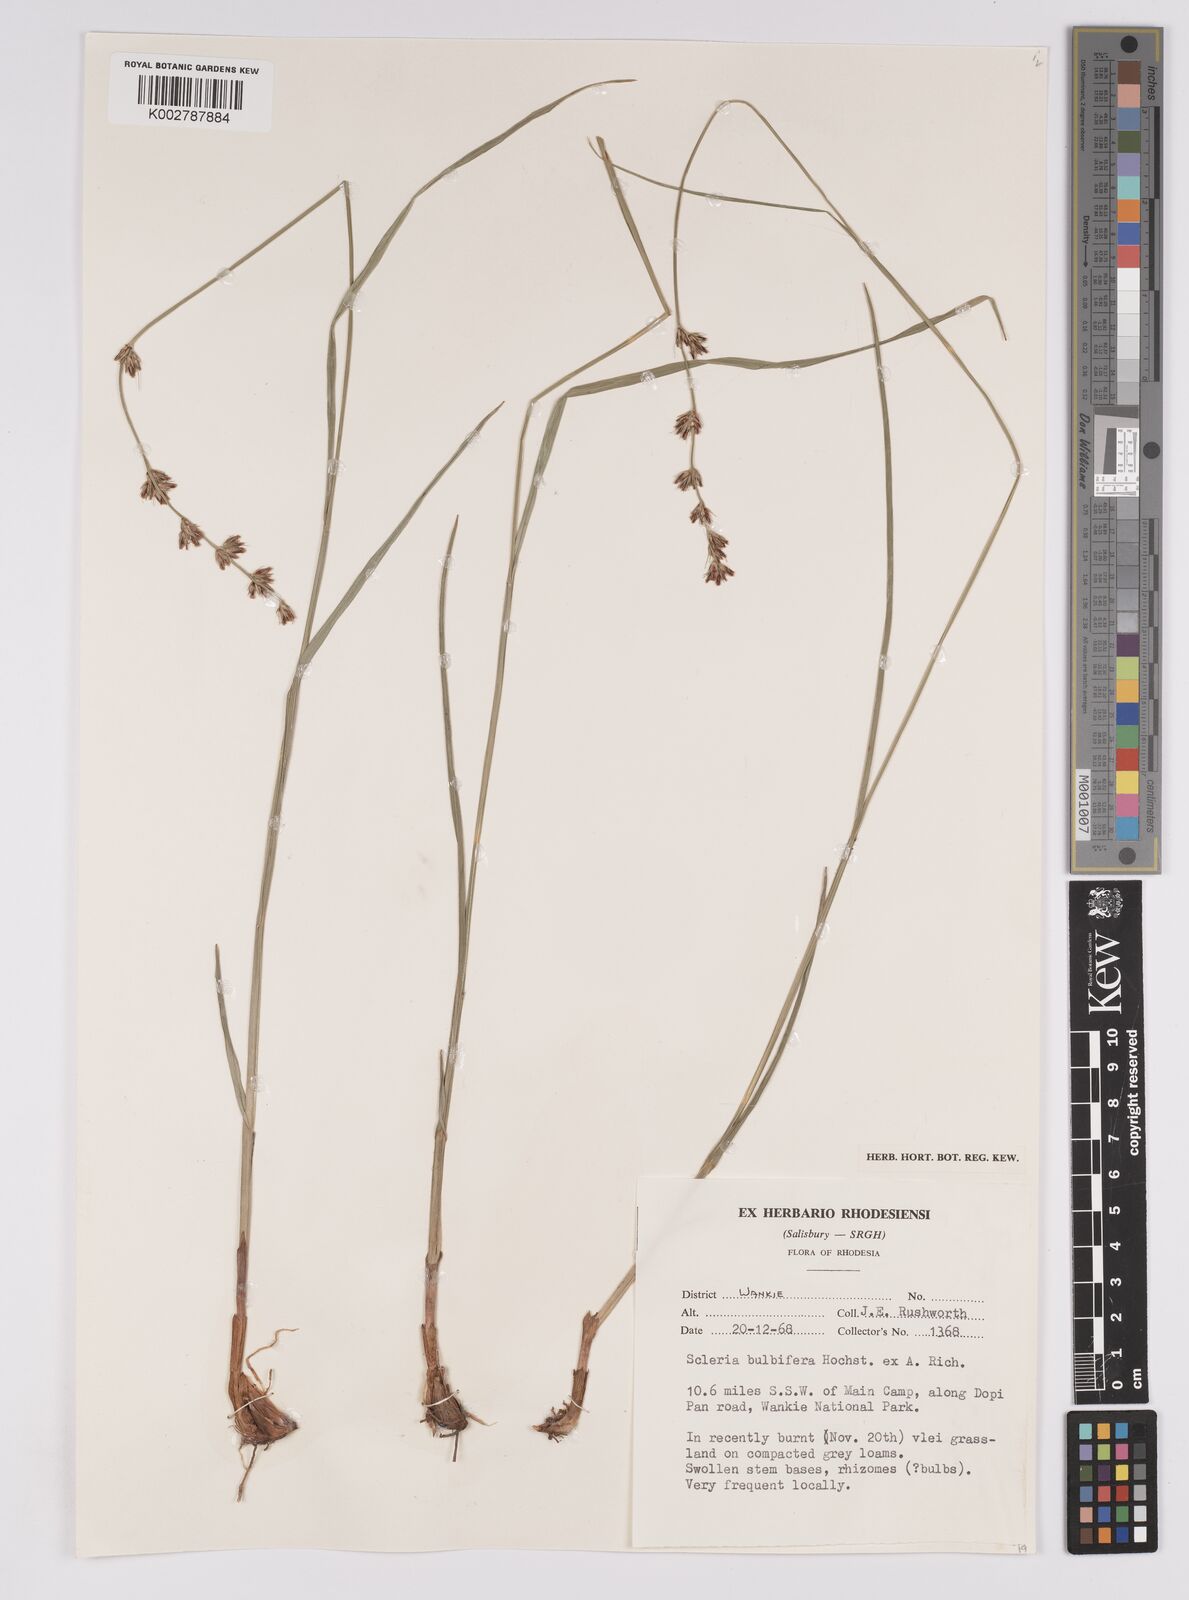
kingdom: Plantae
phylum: Tracheophyta
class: Liliopsida
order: Poales
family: Cyperaceae
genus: Scleria
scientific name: Scleria bulbifera
